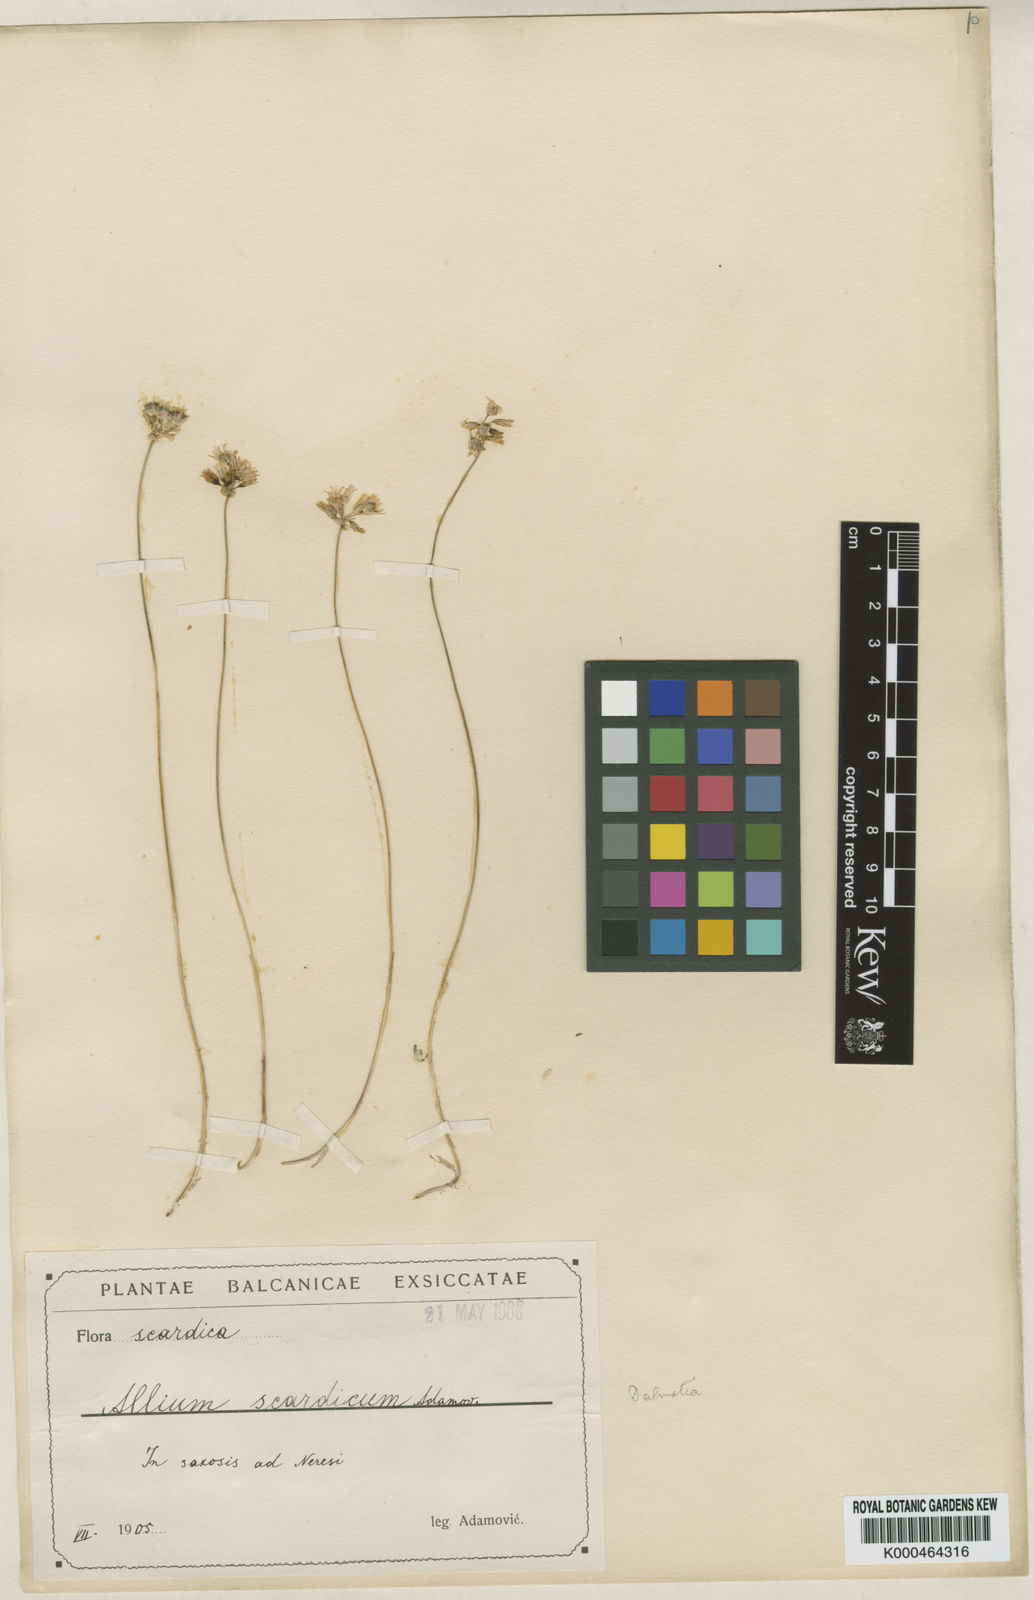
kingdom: Plantae
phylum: Tracheophyta
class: Liliopsida
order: Asparagales
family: Amaryllidaceae
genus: Allium
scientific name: Allium
